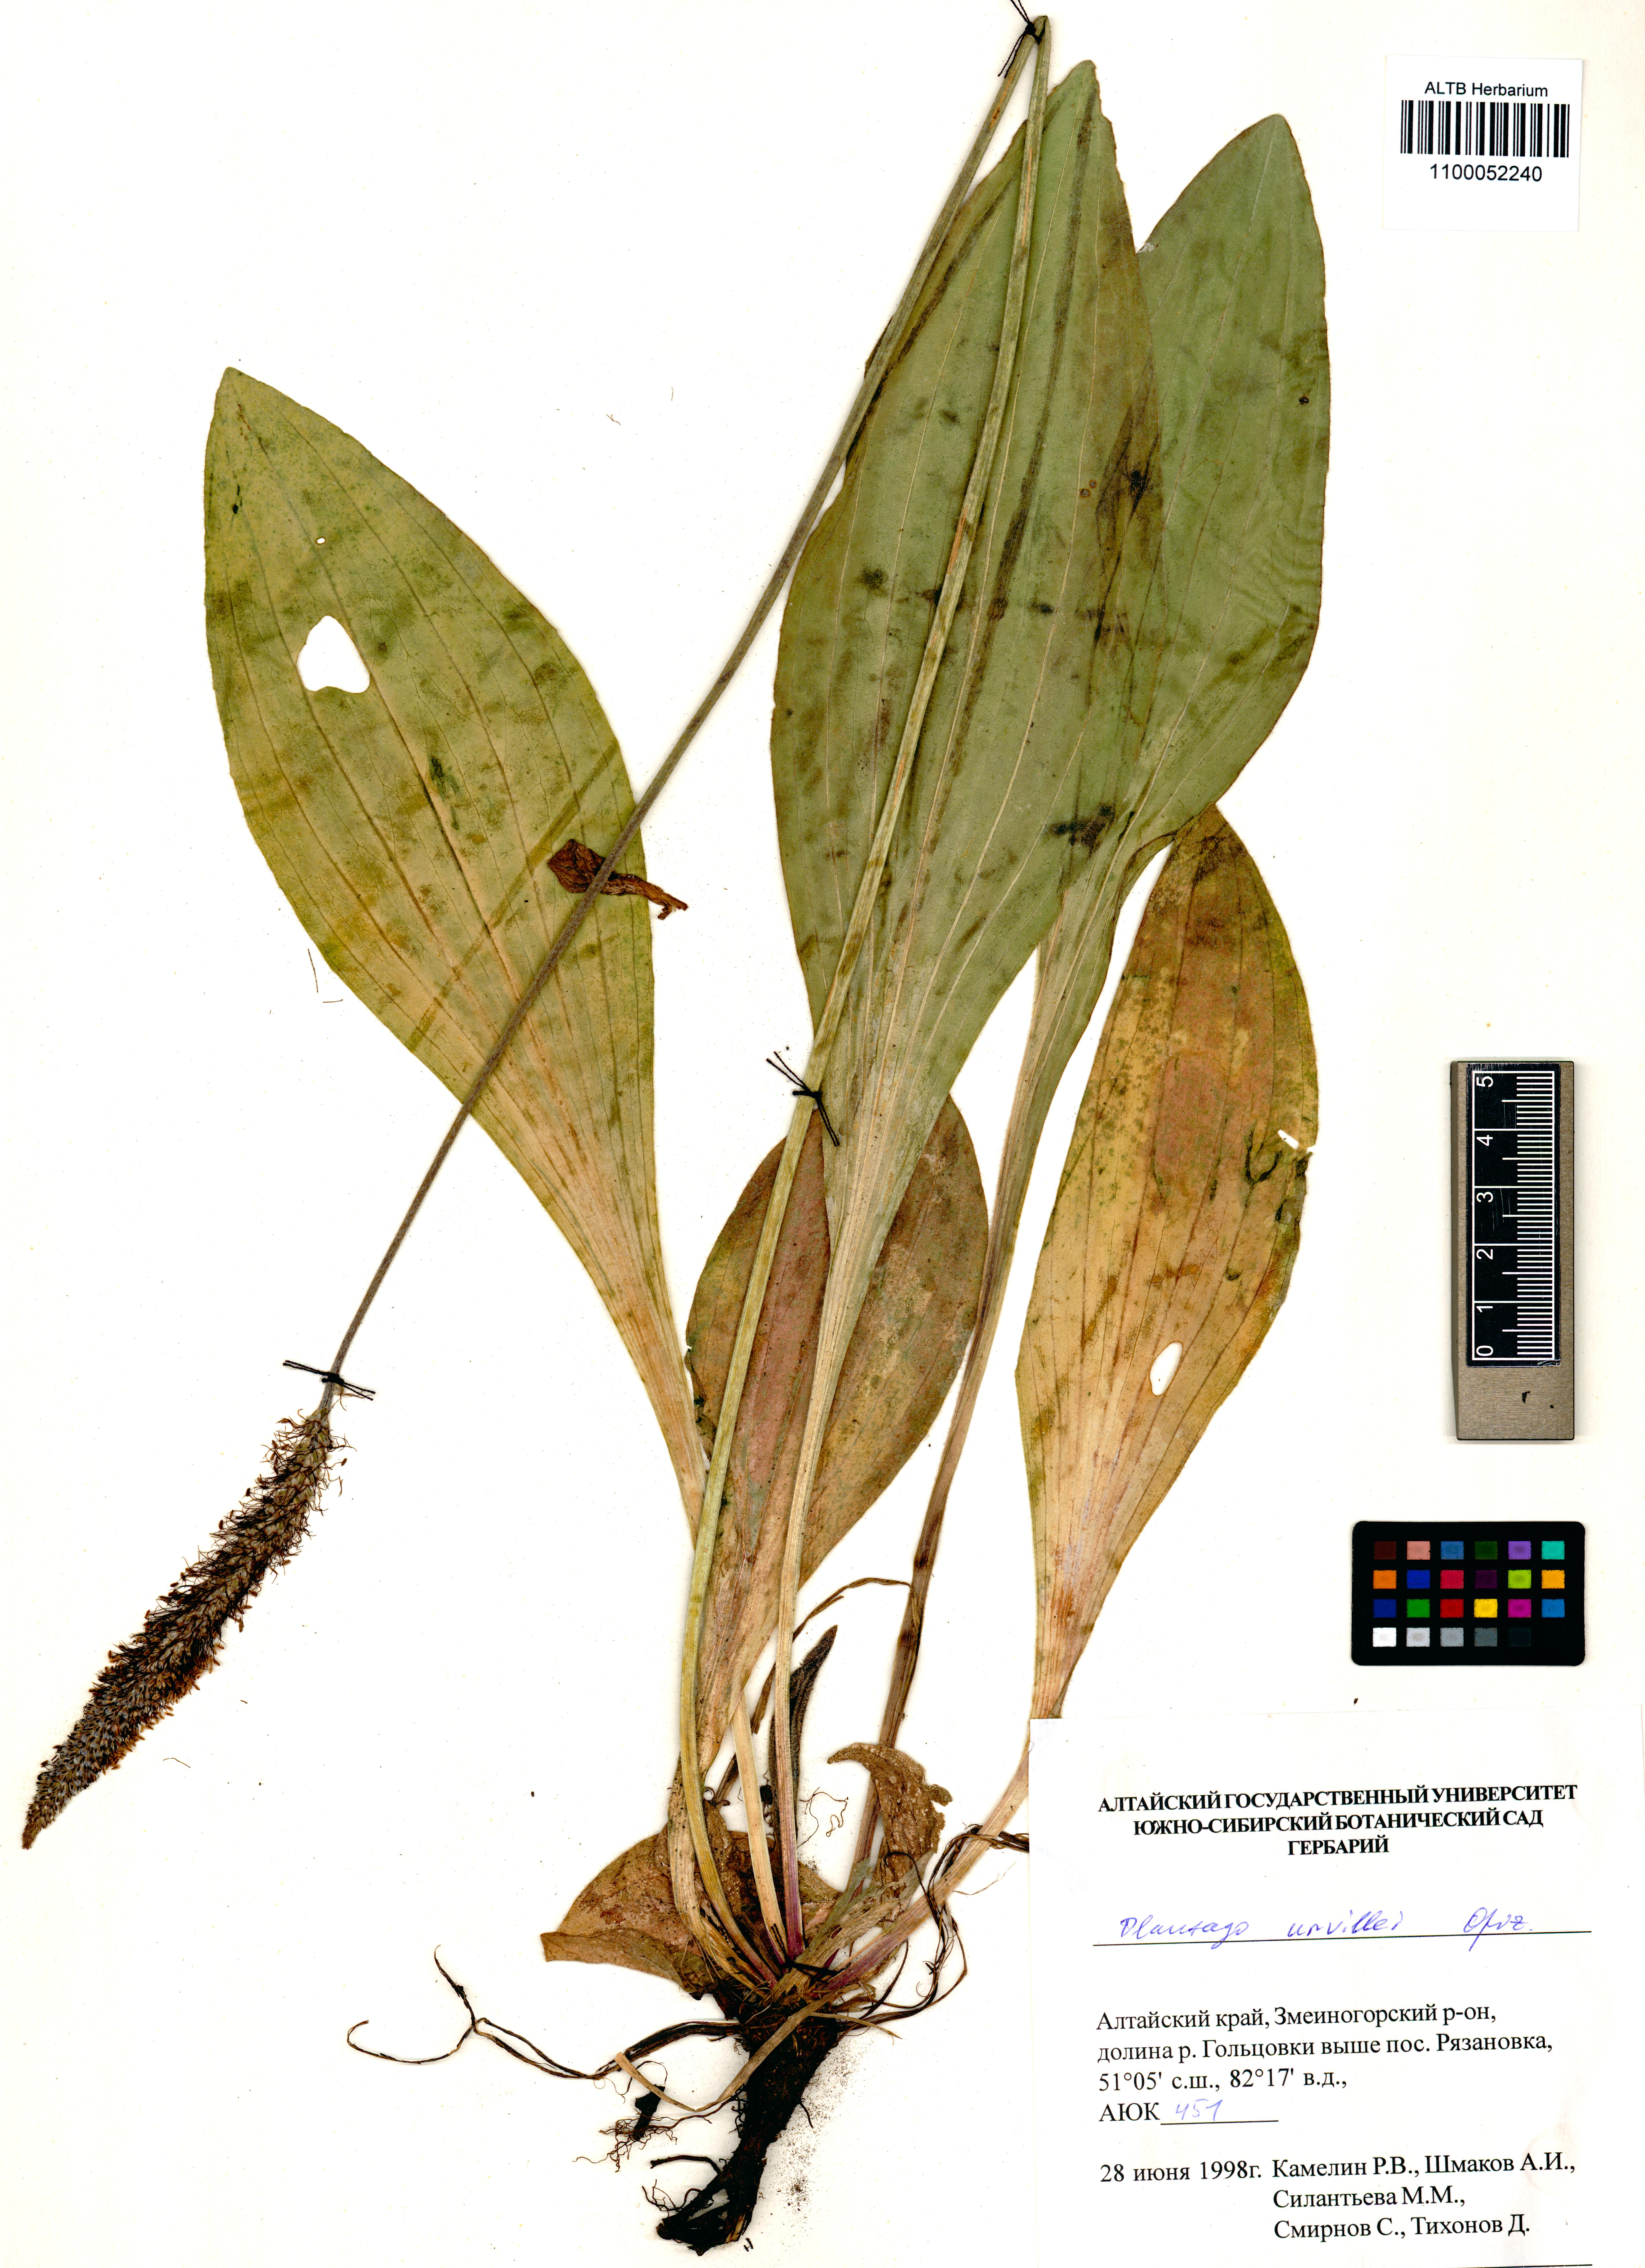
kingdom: Plantae
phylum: Tracheophyta
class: Magnoliopsida
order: Lamiales
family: Plantaginaceae
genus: Plantago
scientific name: Plantago urvillei
